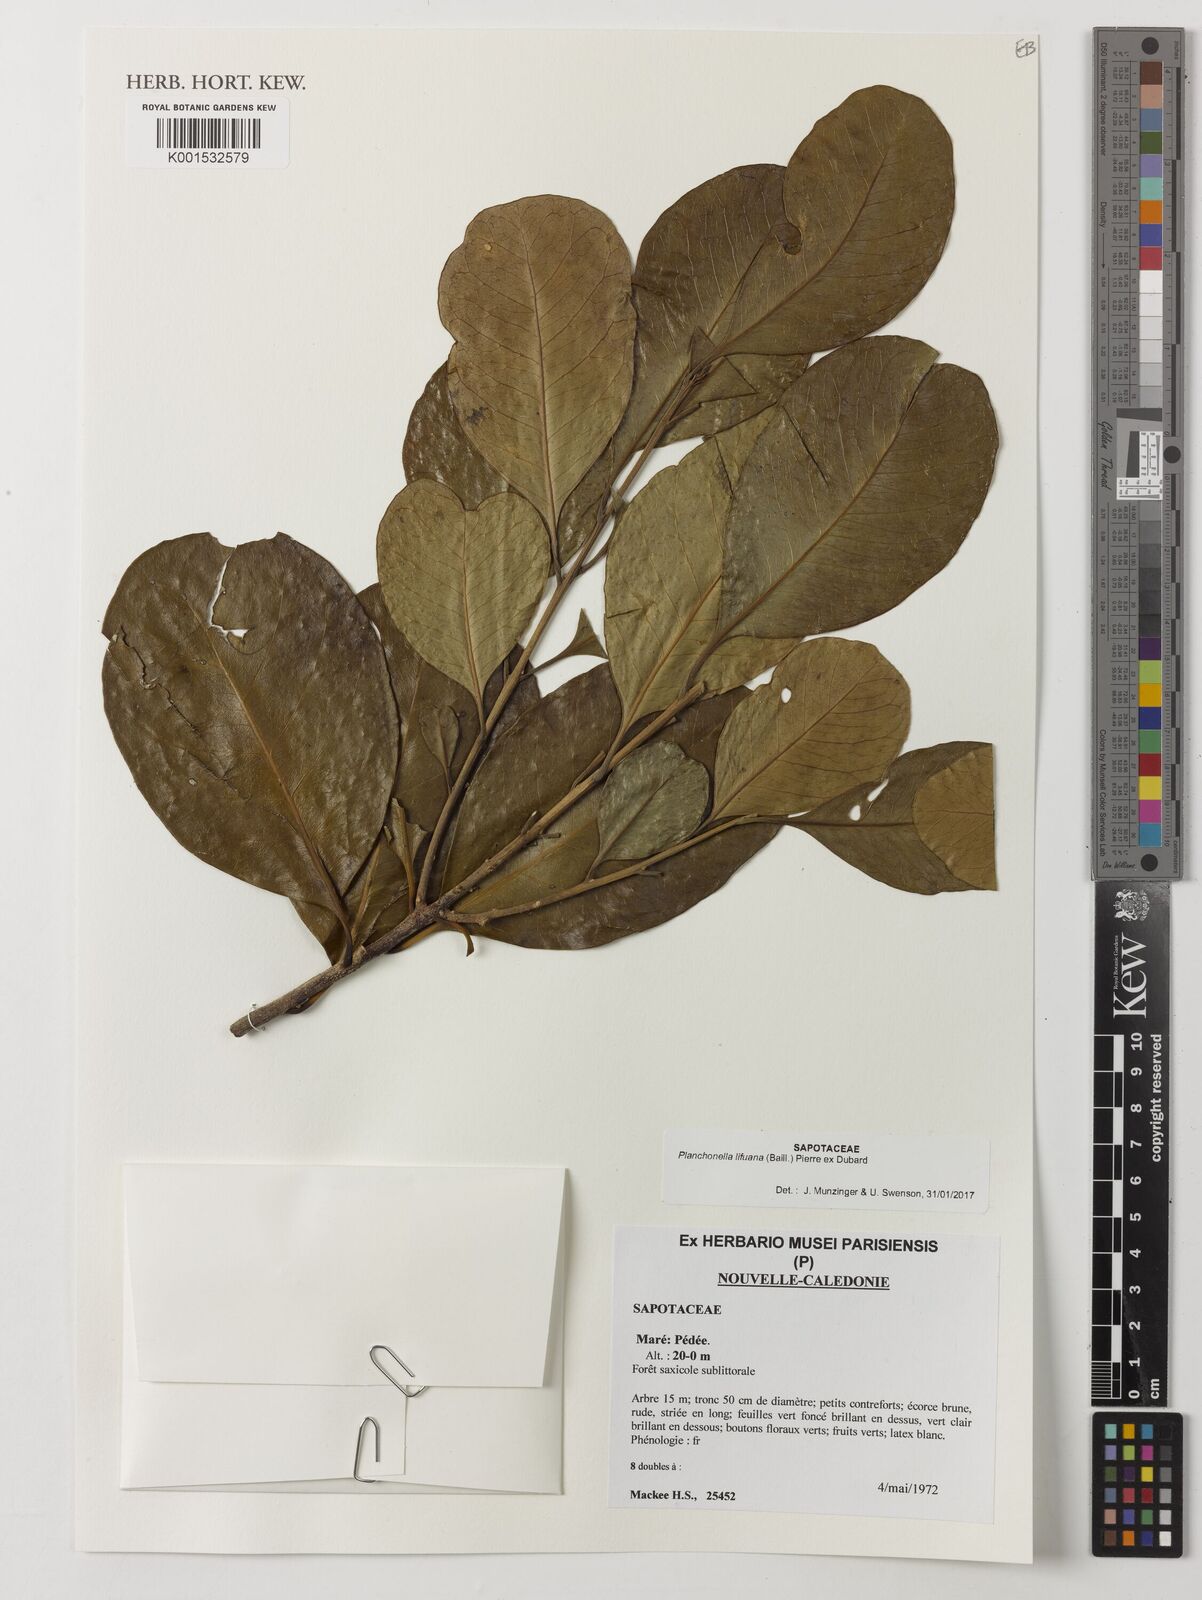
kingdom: Plantae
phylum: Tracheophyta
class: Magnoliopsida
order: Ericales
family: Sapotaceae
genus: Planchonella
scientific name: Planchonella lifuana
